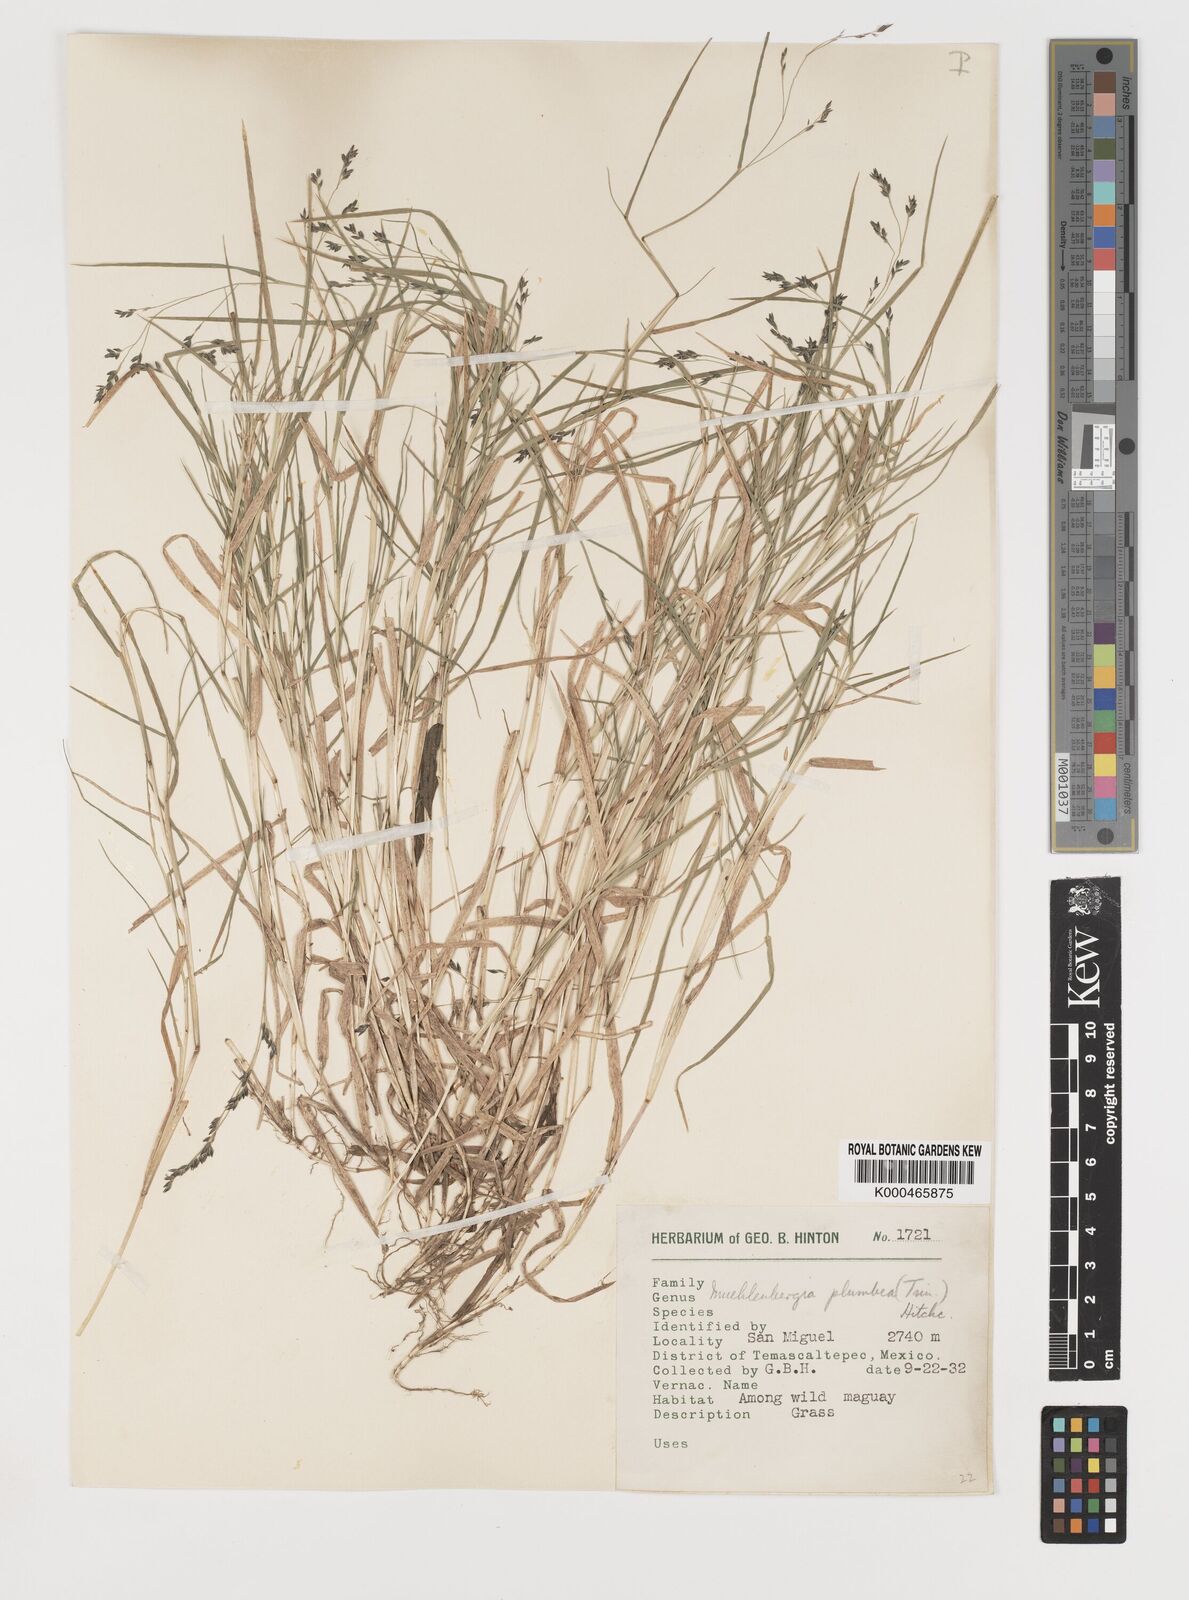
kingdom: Plantae
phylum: Tracheophyta
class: Liliopsida
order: Poales
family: Poaceae
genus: Muhlenbergia
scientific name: Muhlenbergia plumbea
